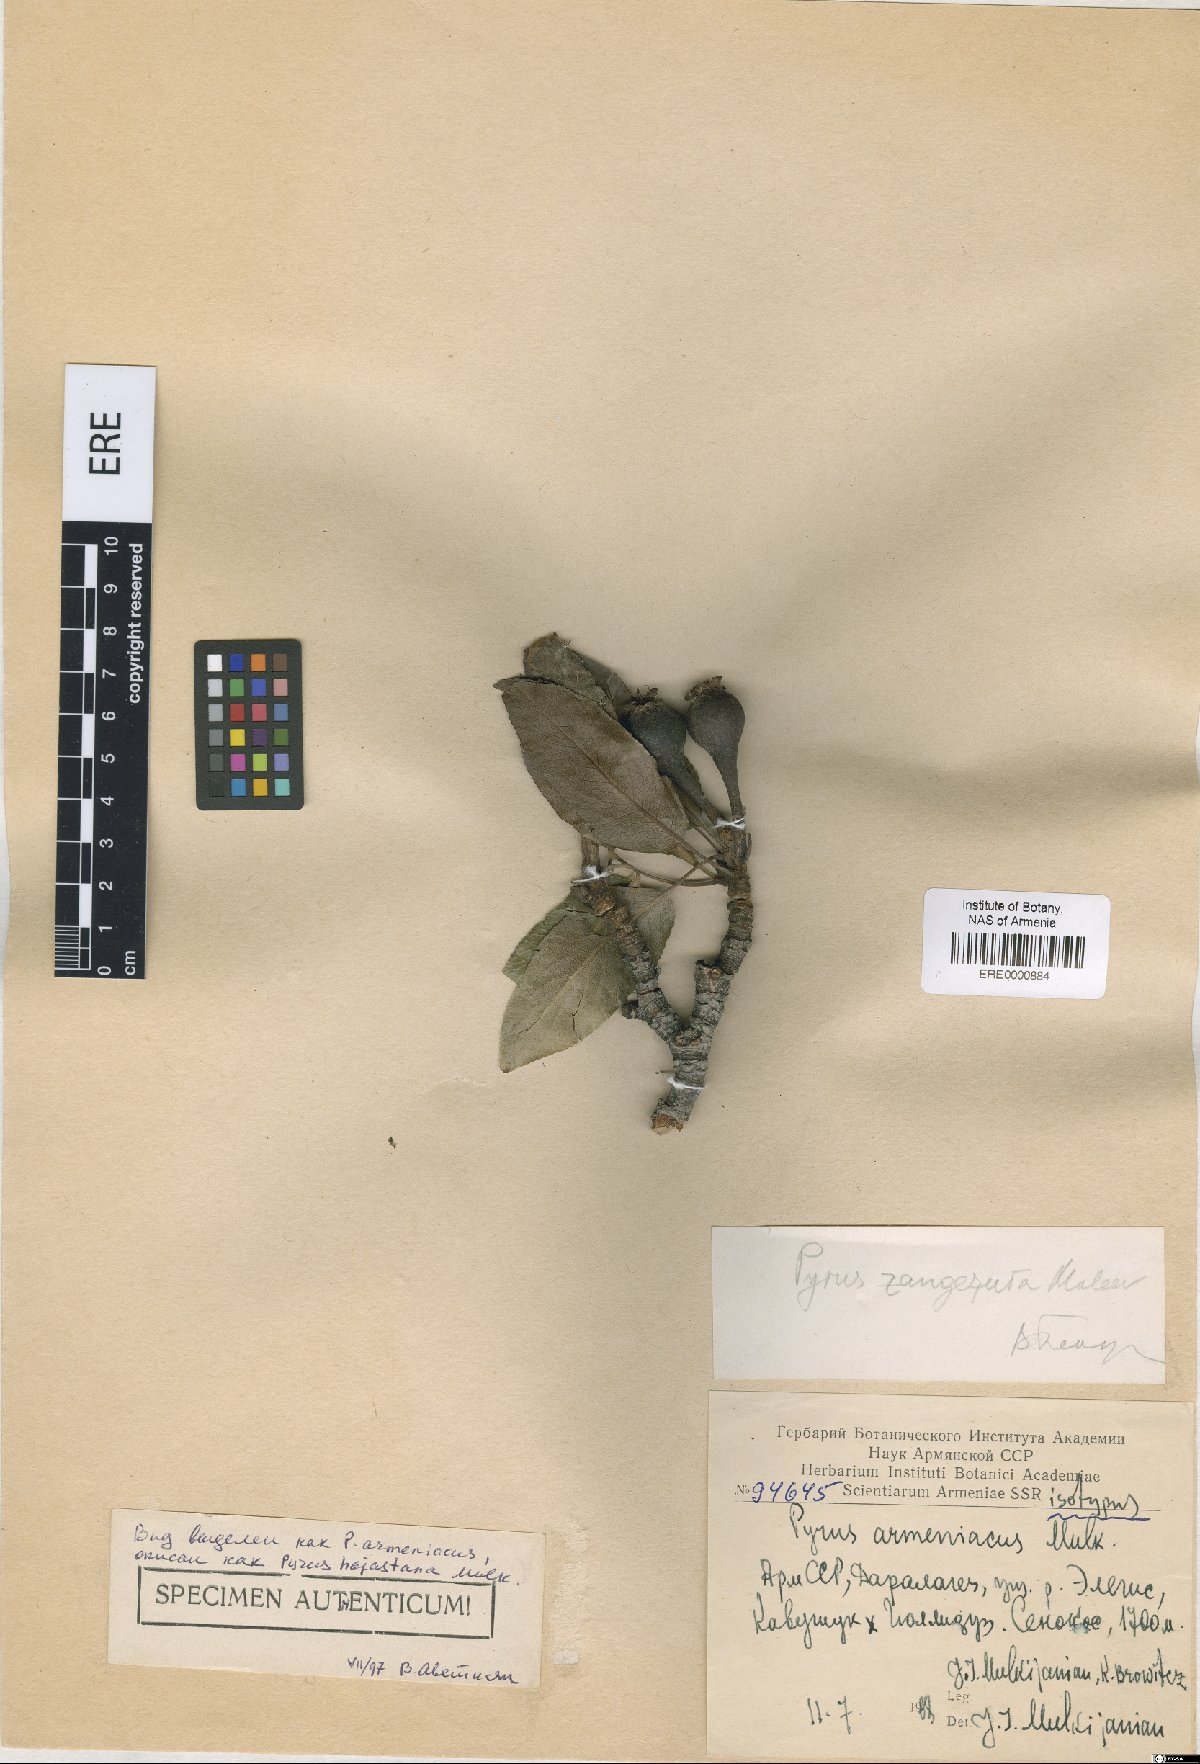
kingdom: Plantae
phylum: Tracheophyta
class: Magnoliopsida
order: Rosales
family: Rosaceae
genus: Pyrus
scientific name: Pyrus hajastana
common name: Hayastanyan pear
